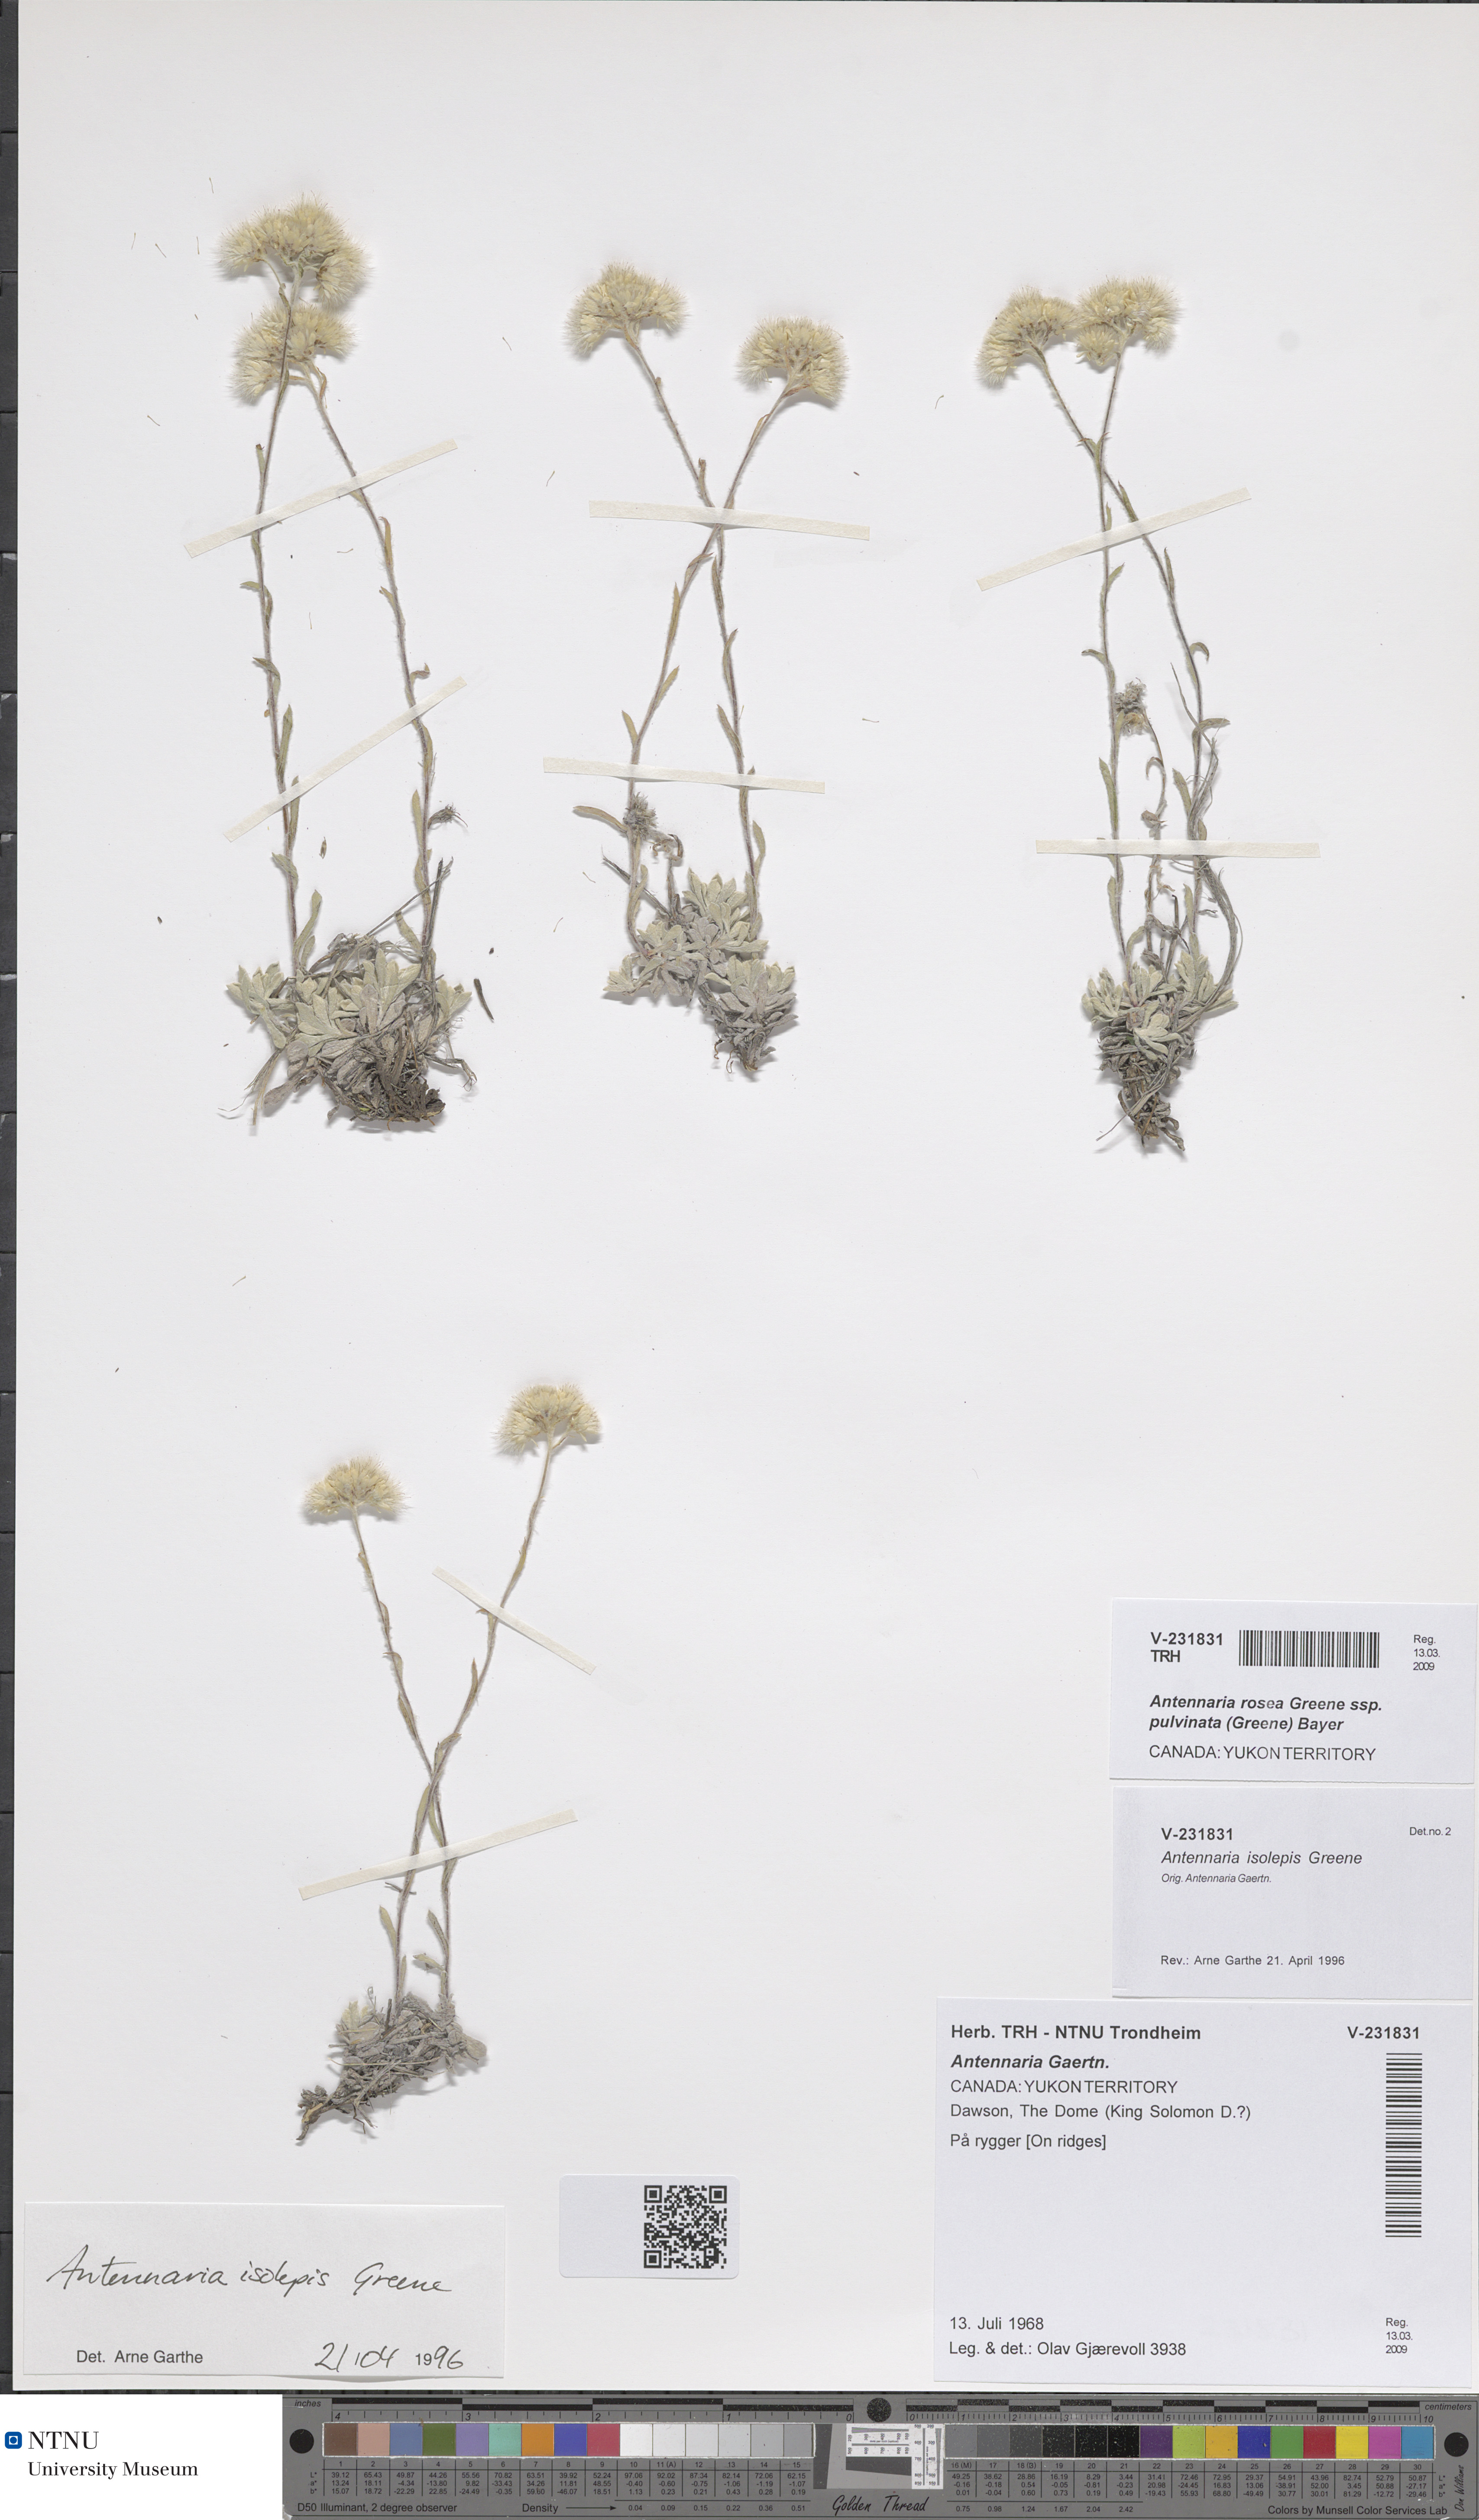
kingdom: Plantae
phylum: Tracheophyta
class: Magnoliopsida
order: Asterales
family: Asteraceae
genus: Antennaria
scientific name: Antennaria rosea
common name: Rosy pussytoes
